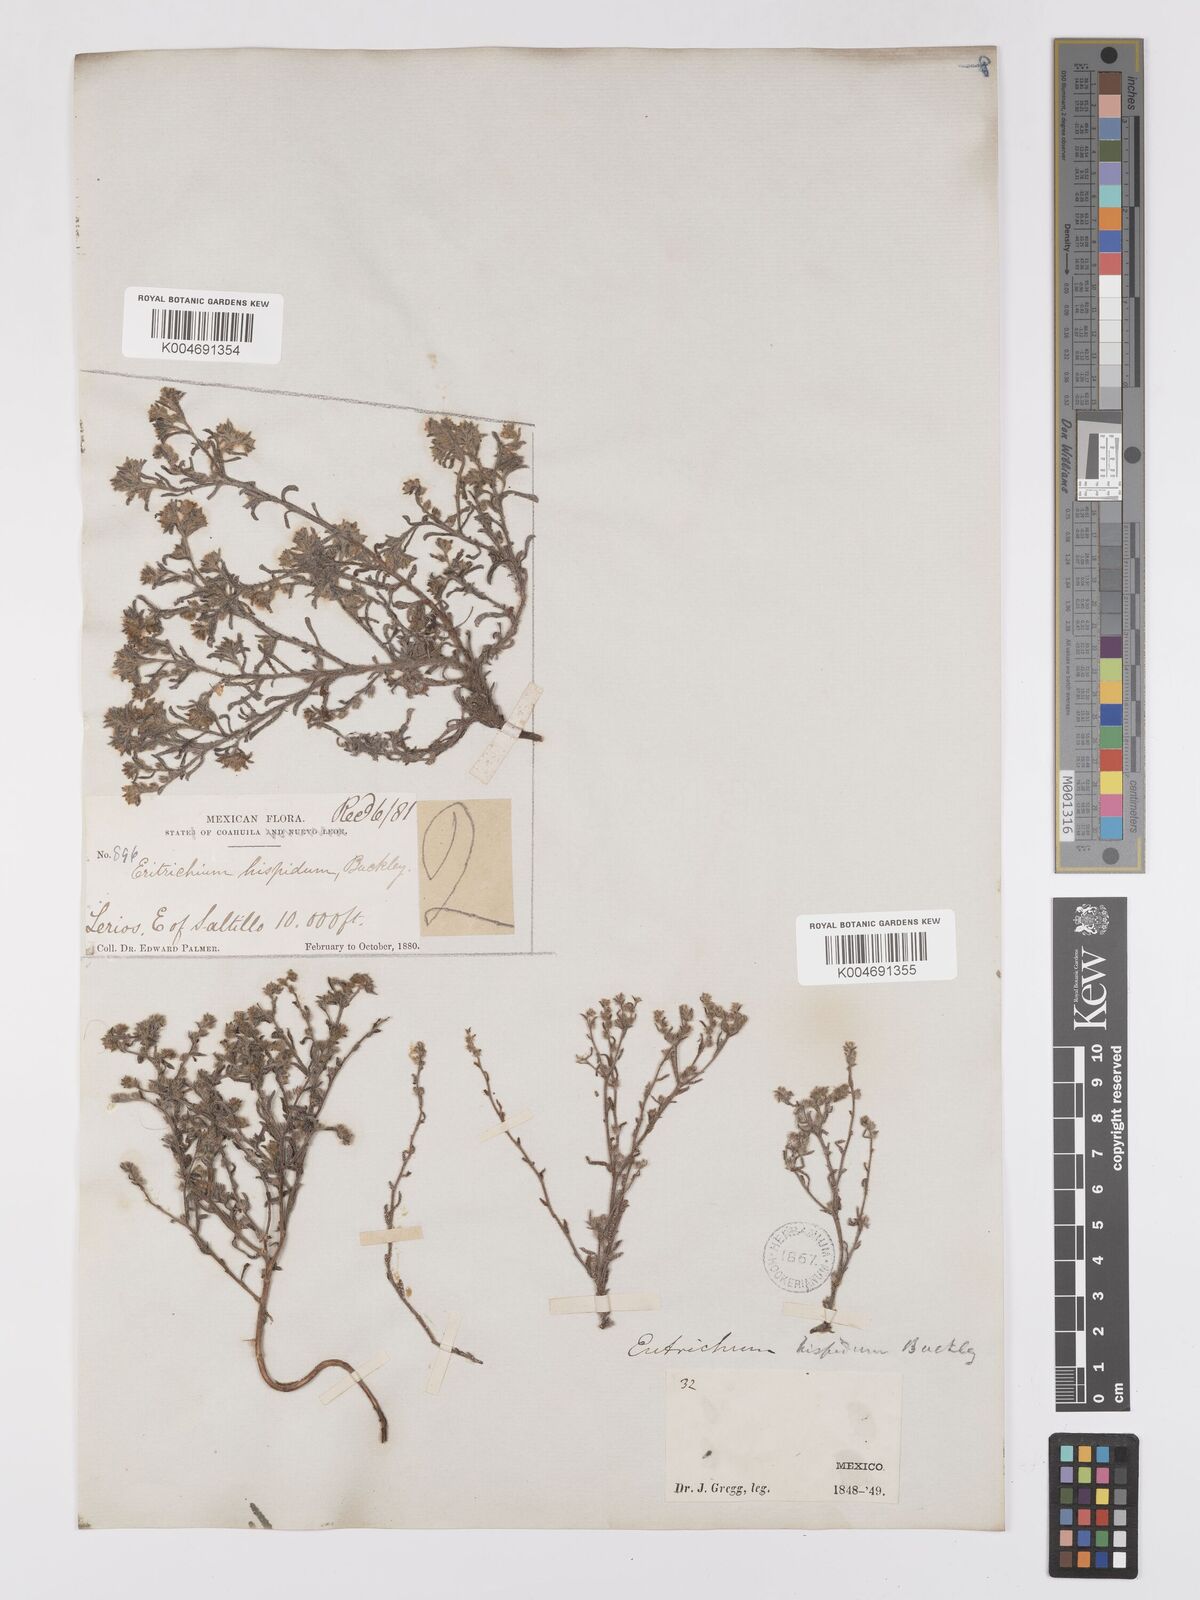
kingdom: Plantae
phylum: Tracheophyta
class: Magnoliopsida
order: Boraginales
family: Boraginaceae
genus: Johnstonella
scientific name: Johnstonella albida
